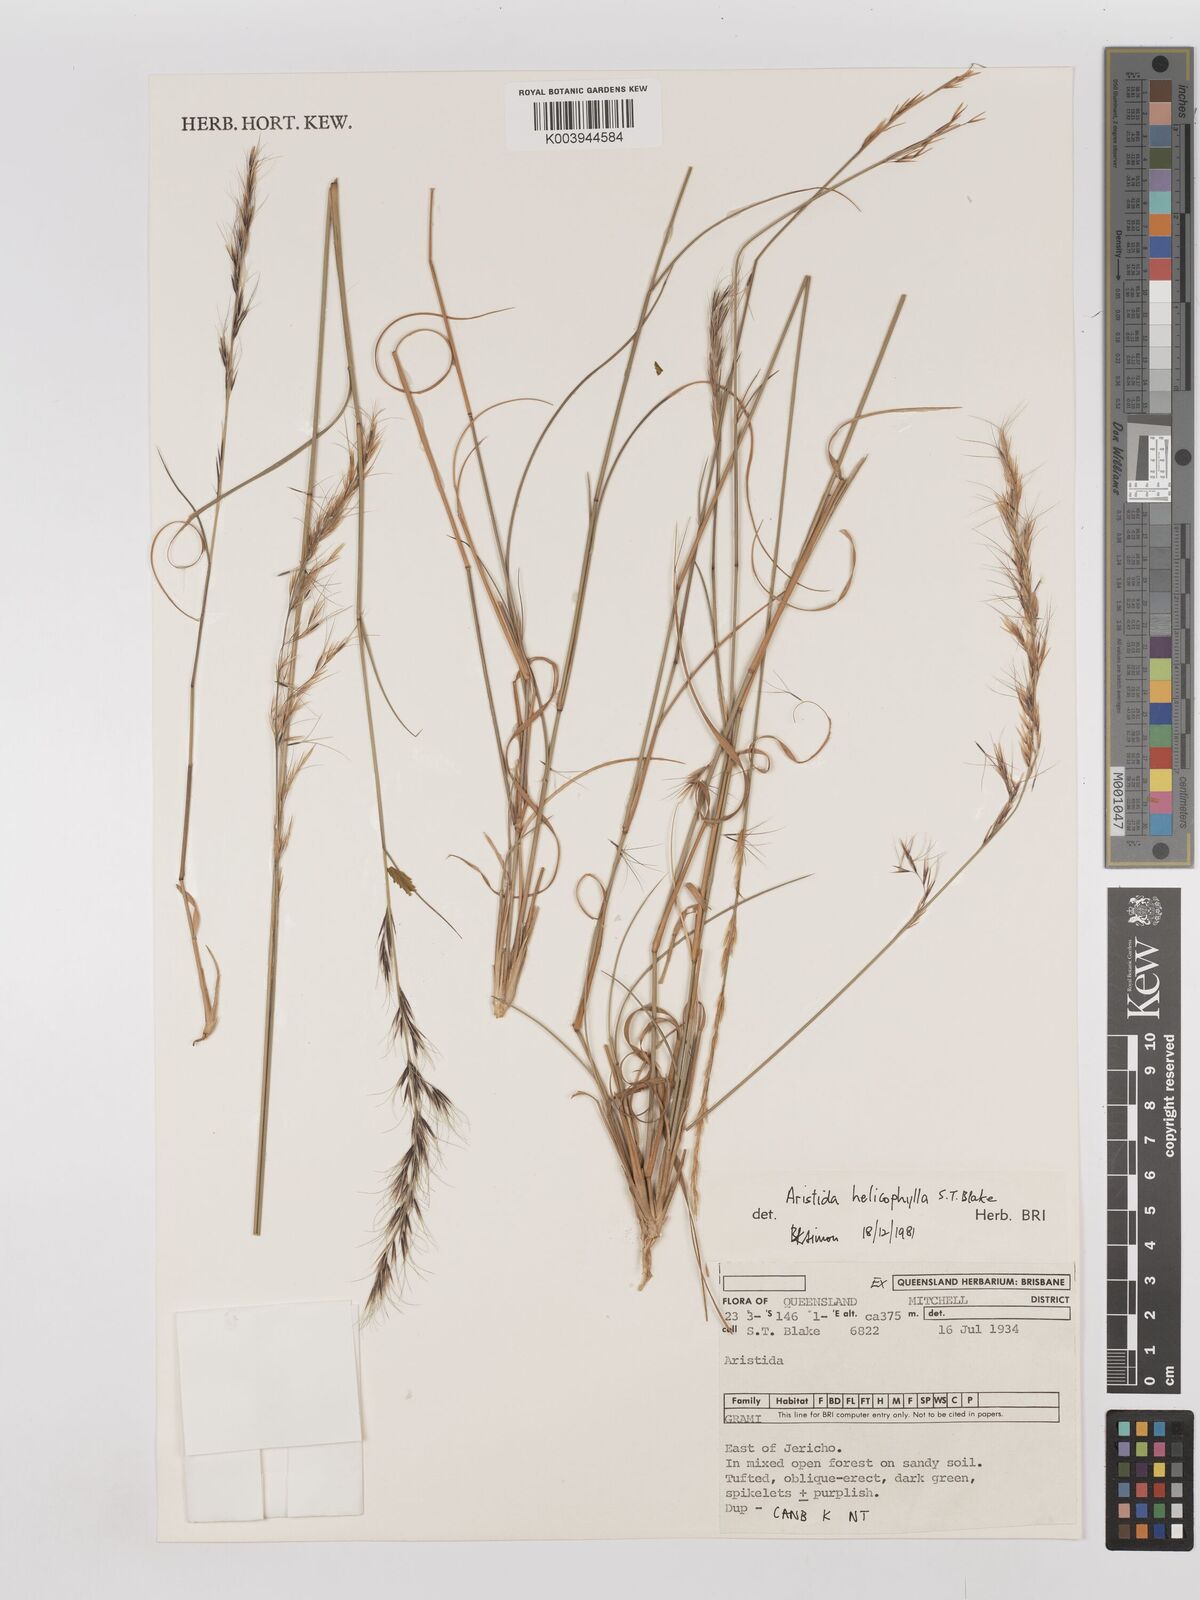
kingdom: Plantae
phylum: Tracheophyta
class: Liliopsida
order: Poales
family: Poaceae
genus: Aristida
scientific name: Aristida helicophylla
